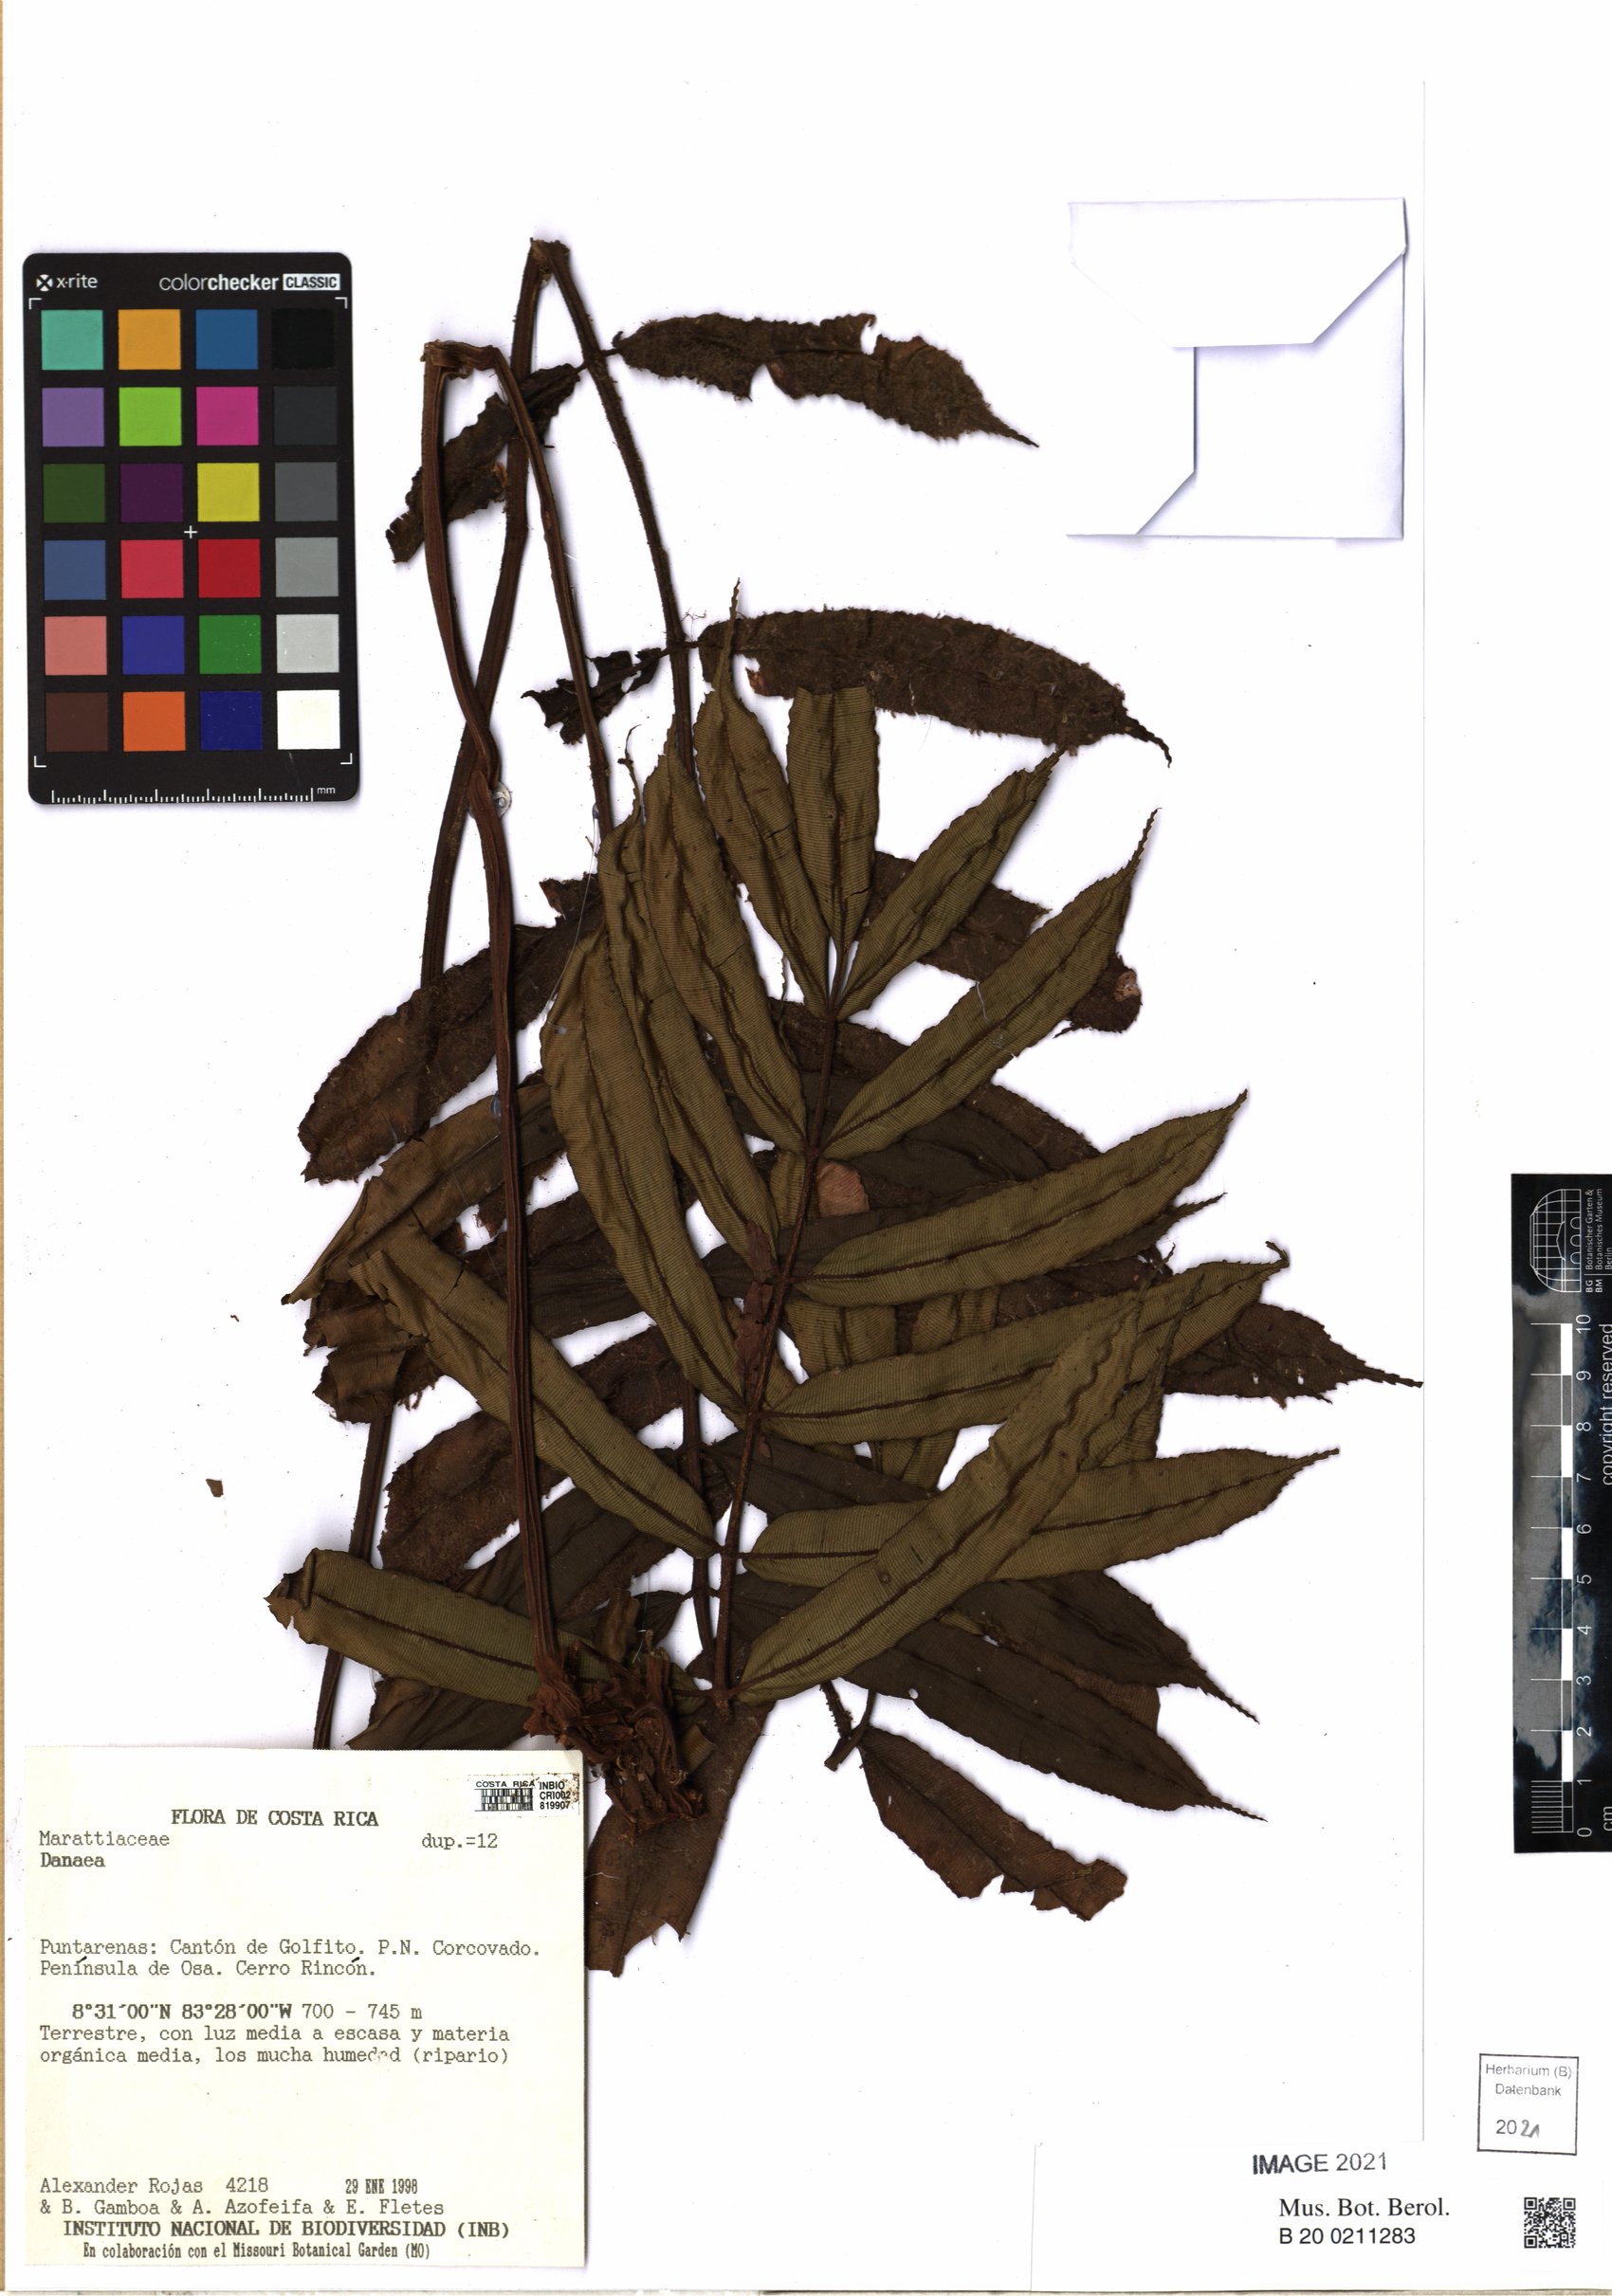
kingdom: Plantae
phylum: Tracheophyta
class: Polypodiopsida
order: Marattiales
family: Marattiaceae
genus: Danaea
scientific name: Danaea moritziana
